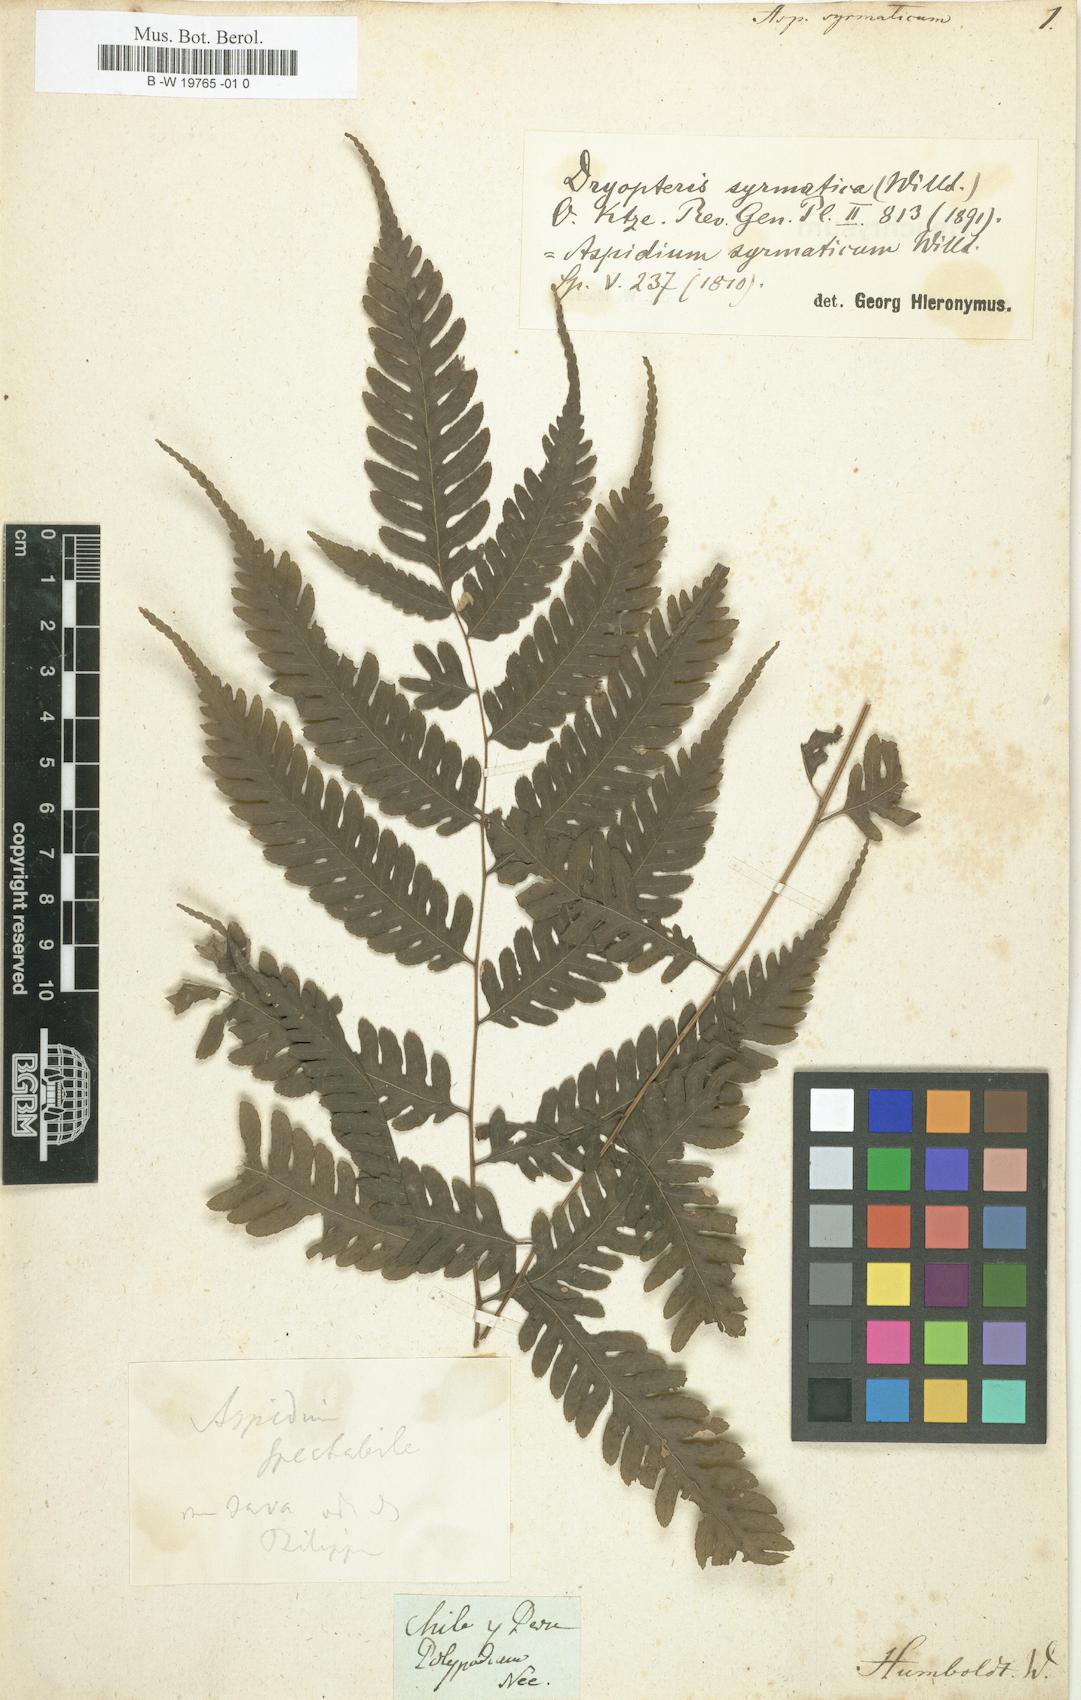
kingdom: Plantae
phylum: Tracheophyta
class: Polypodiopsida
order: Polypodiales
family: Tectariaceae
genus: Pteridrys
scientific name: Pteridrys syrmatica
